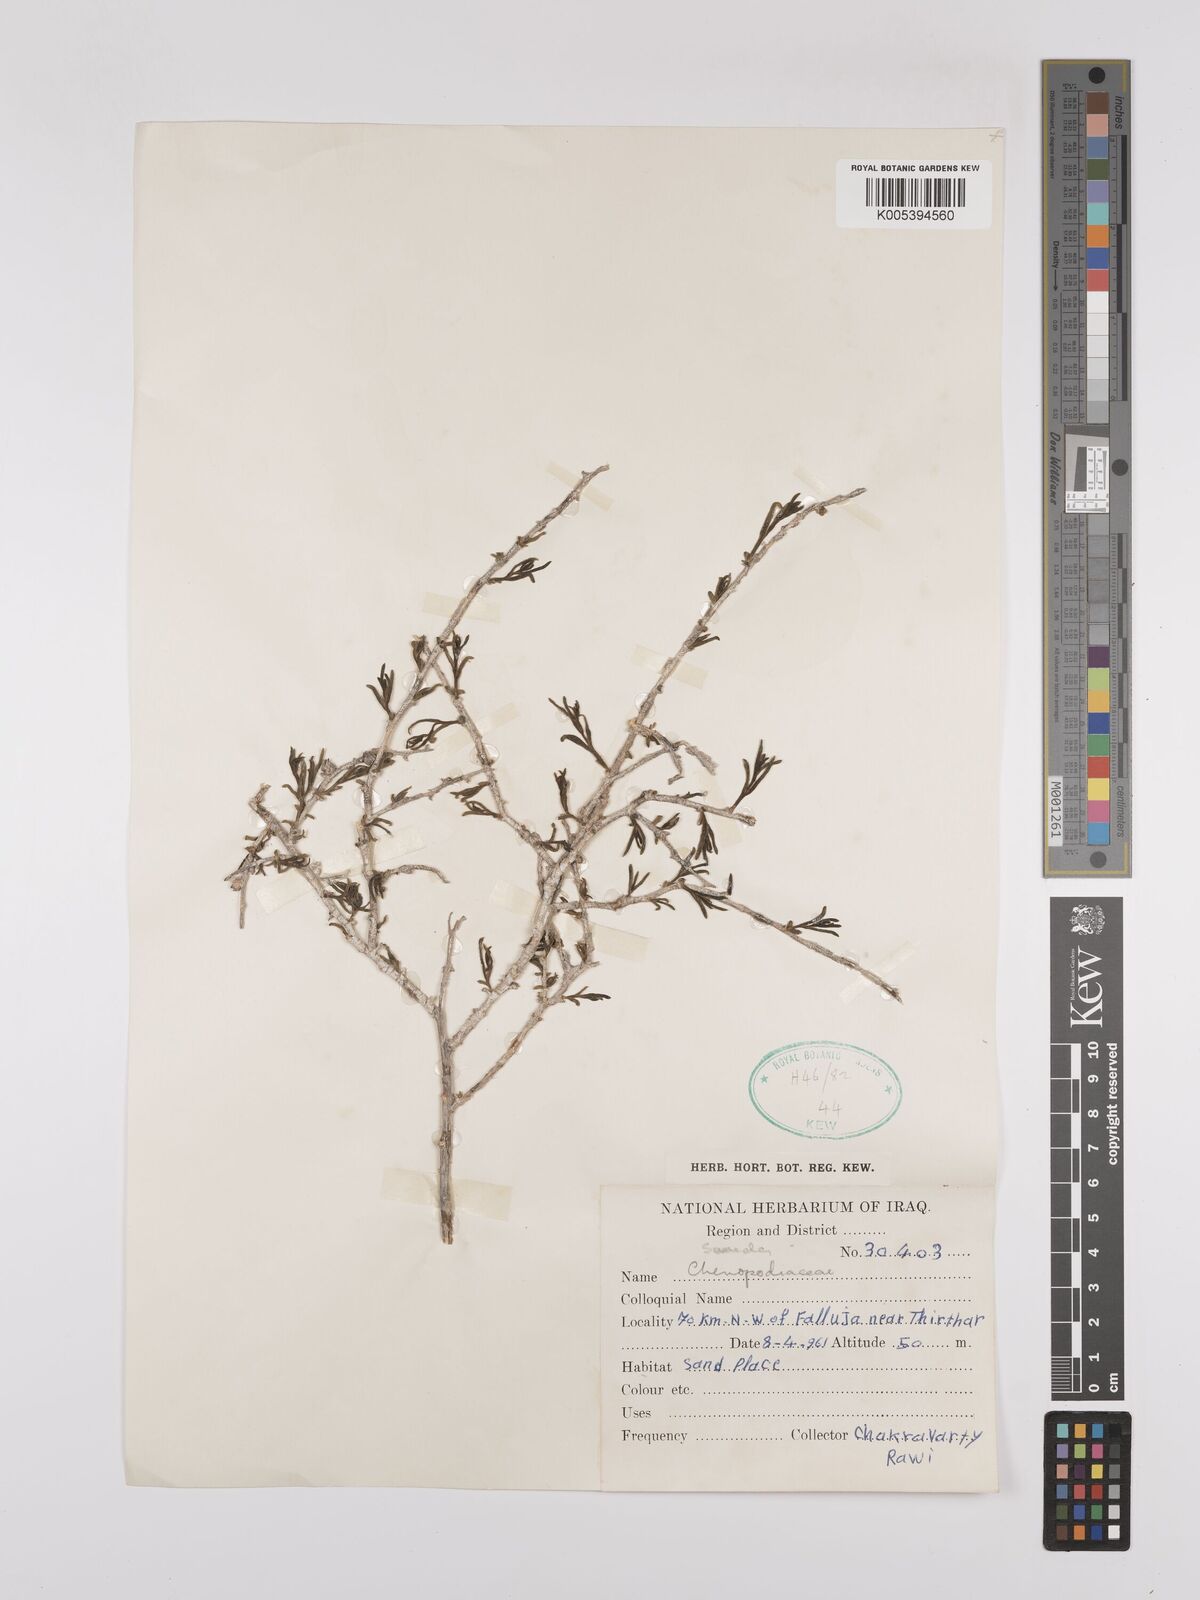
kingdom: Plantae
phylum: Tracheophyta
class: Magnoliopsida
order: Caryophyllales
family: Amaranthaceae
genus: Suaeda
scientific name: Suaeda acuminata
